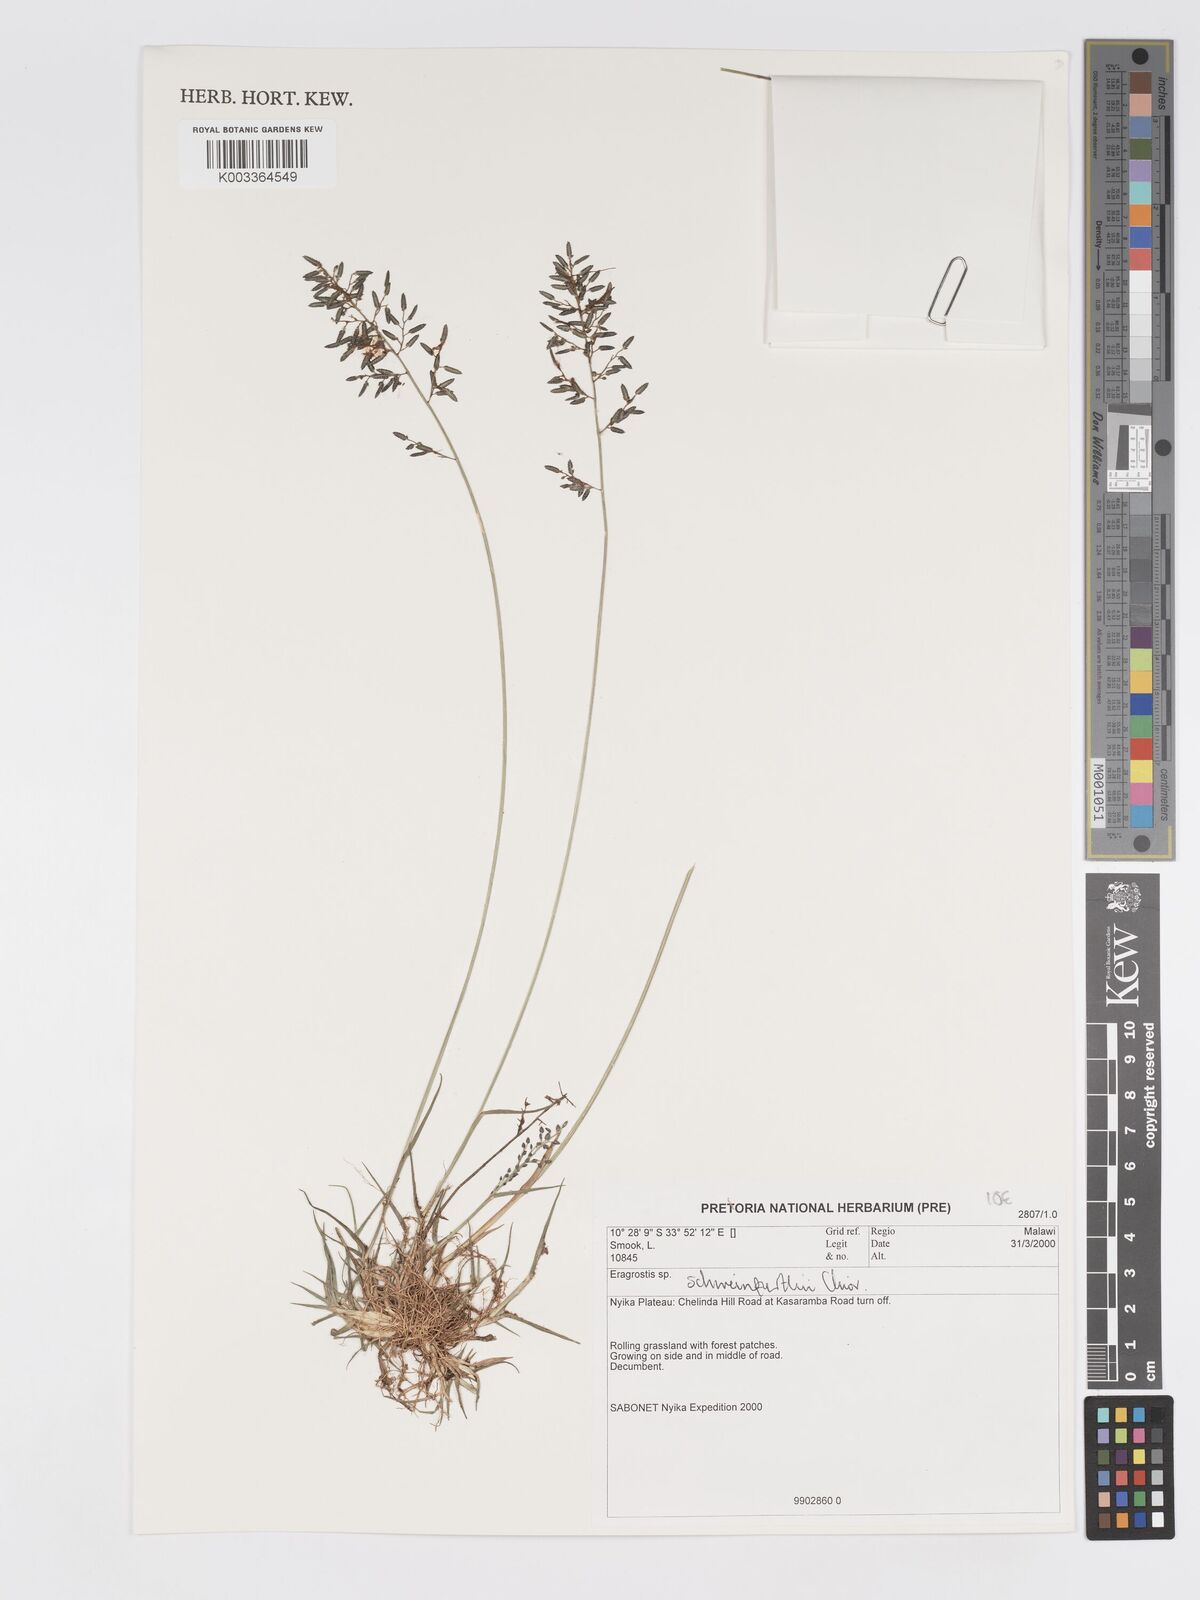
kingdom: Plantae
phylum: Tracheophyta
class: Liliopsida
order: Poales
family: Poaceae
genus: Eragrostis
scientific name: Eragrostis schweinfurthii
